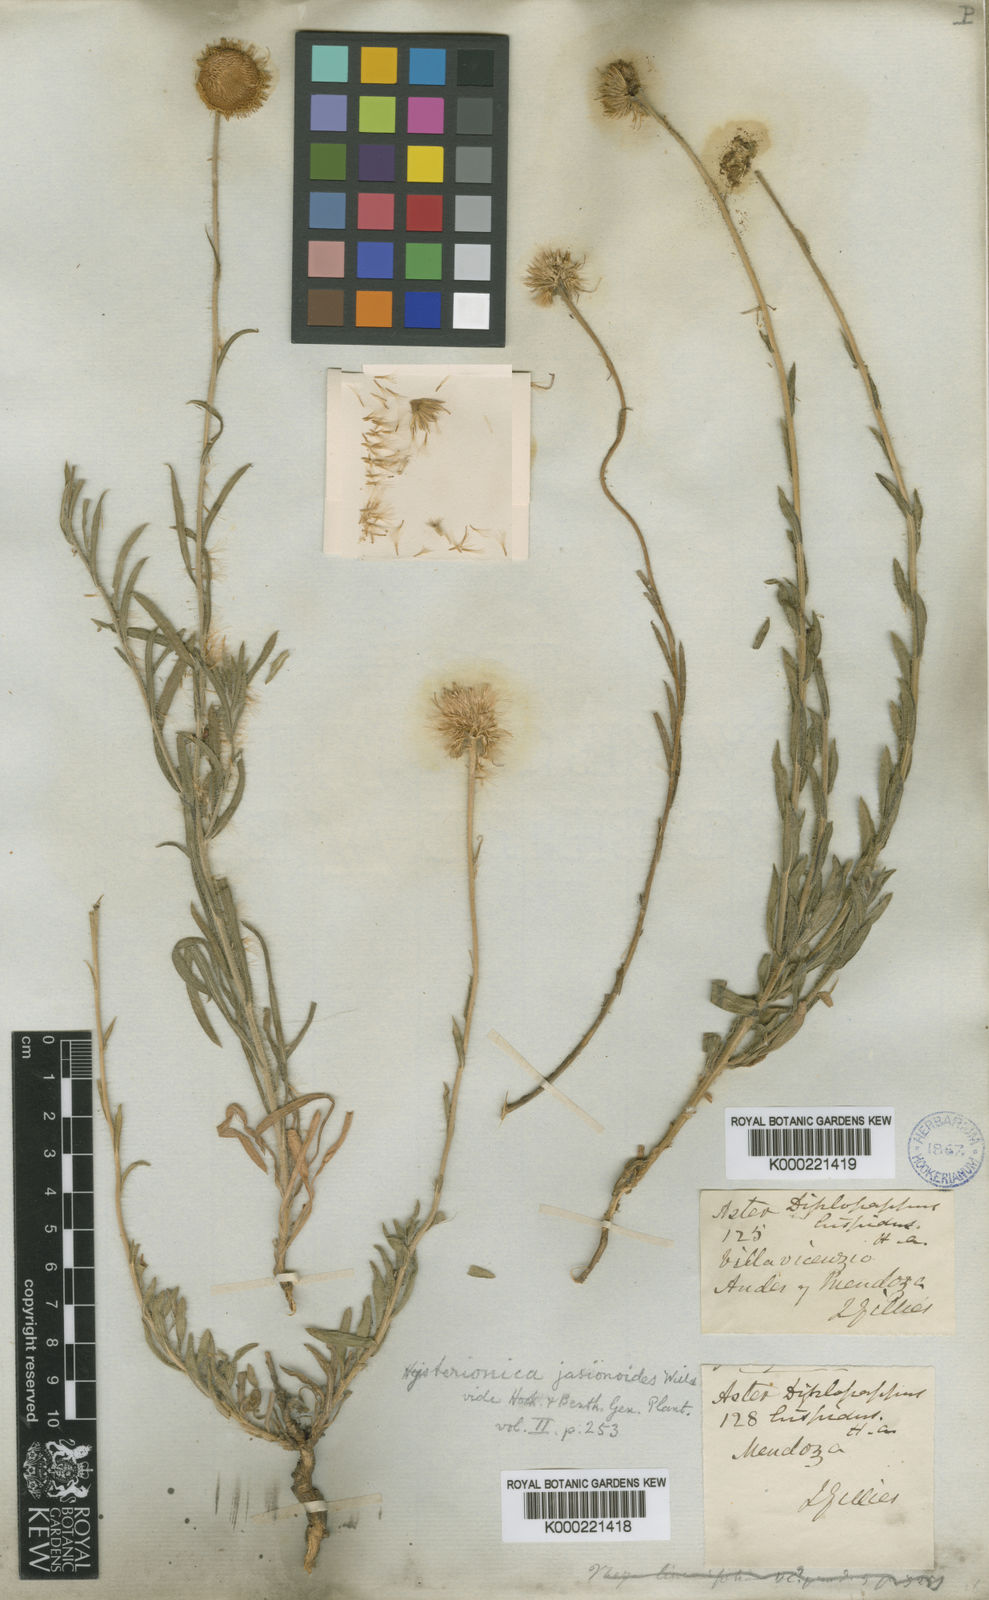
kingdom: Plantae
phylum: Tracheophyta
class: Magnoliopsida
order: Asterales
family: Asteraceae
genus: Hysterionica
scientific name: Hysterionica jasionoides
